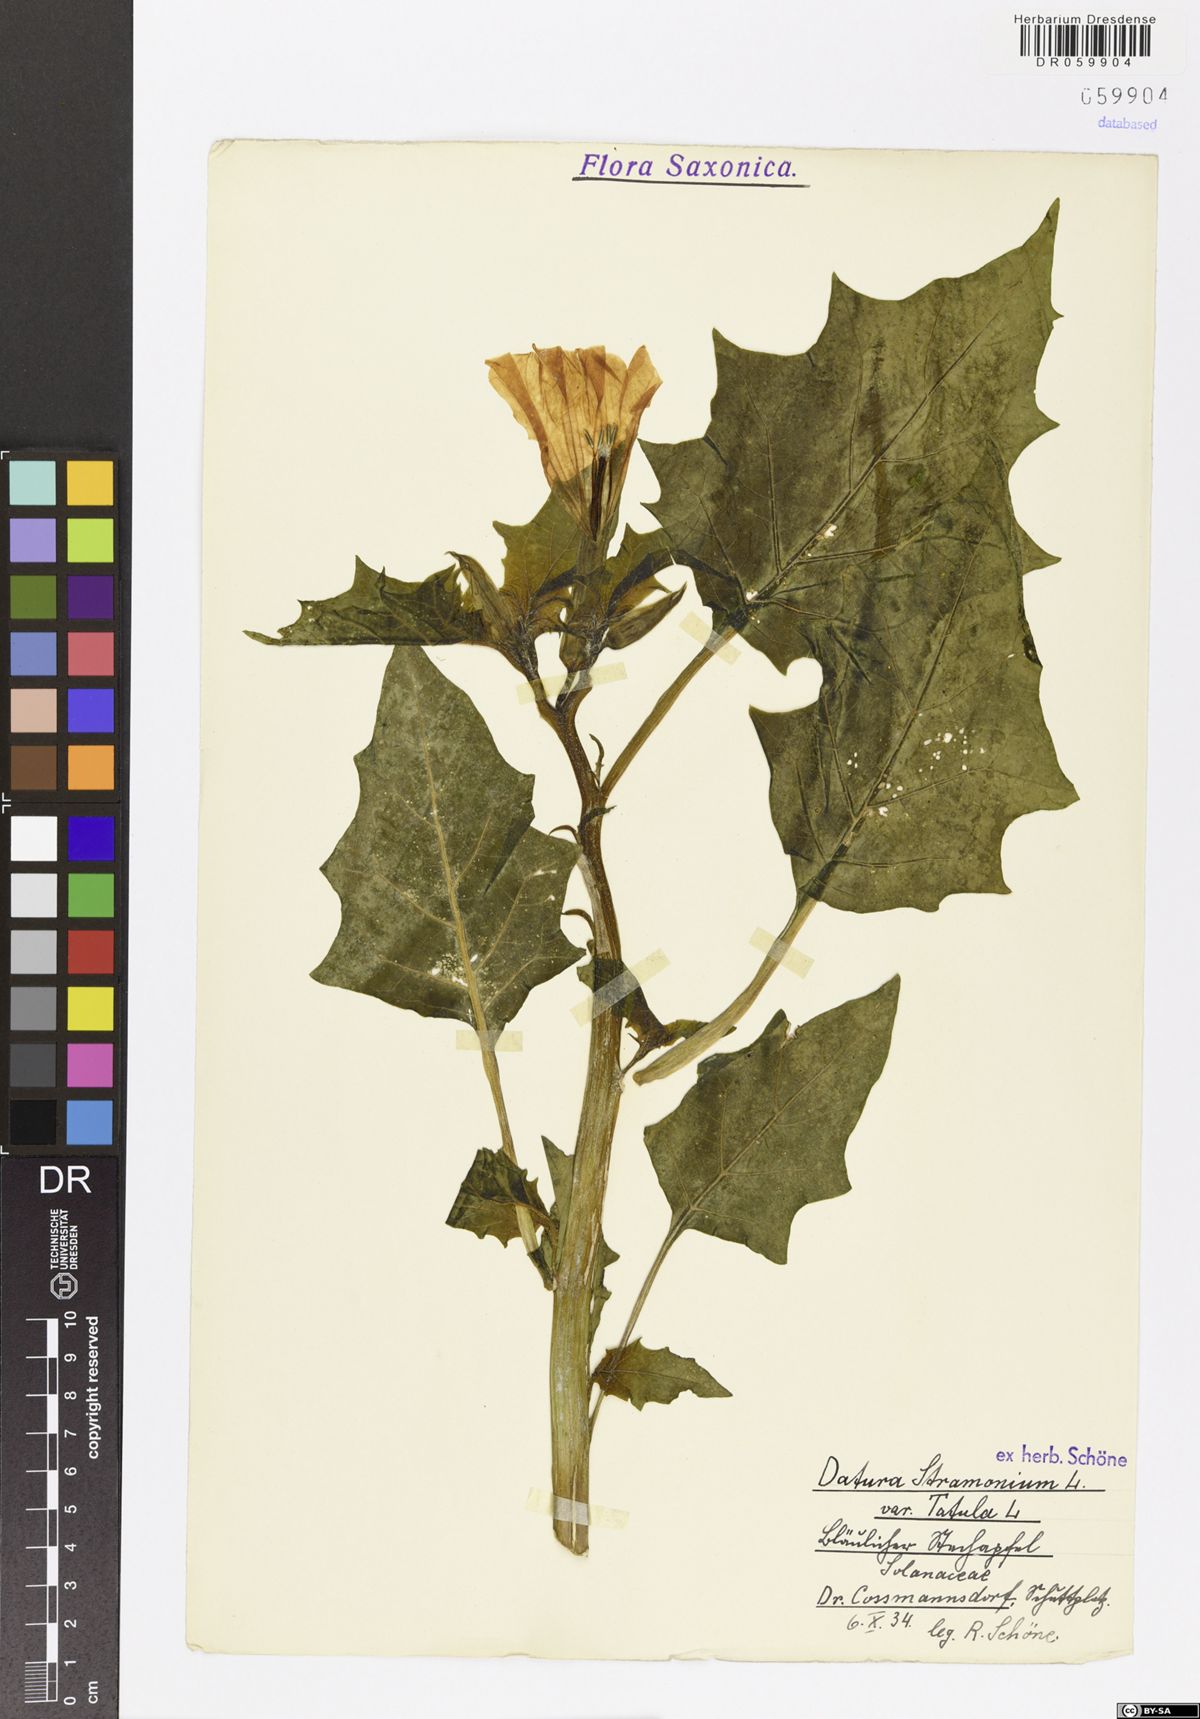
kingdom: Plantae
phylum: Tracheophyta
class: Magnoliopsida
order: Solanales
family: Solanaceae
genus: Datura
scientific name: Datura stramonium
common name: Thorn-apple
